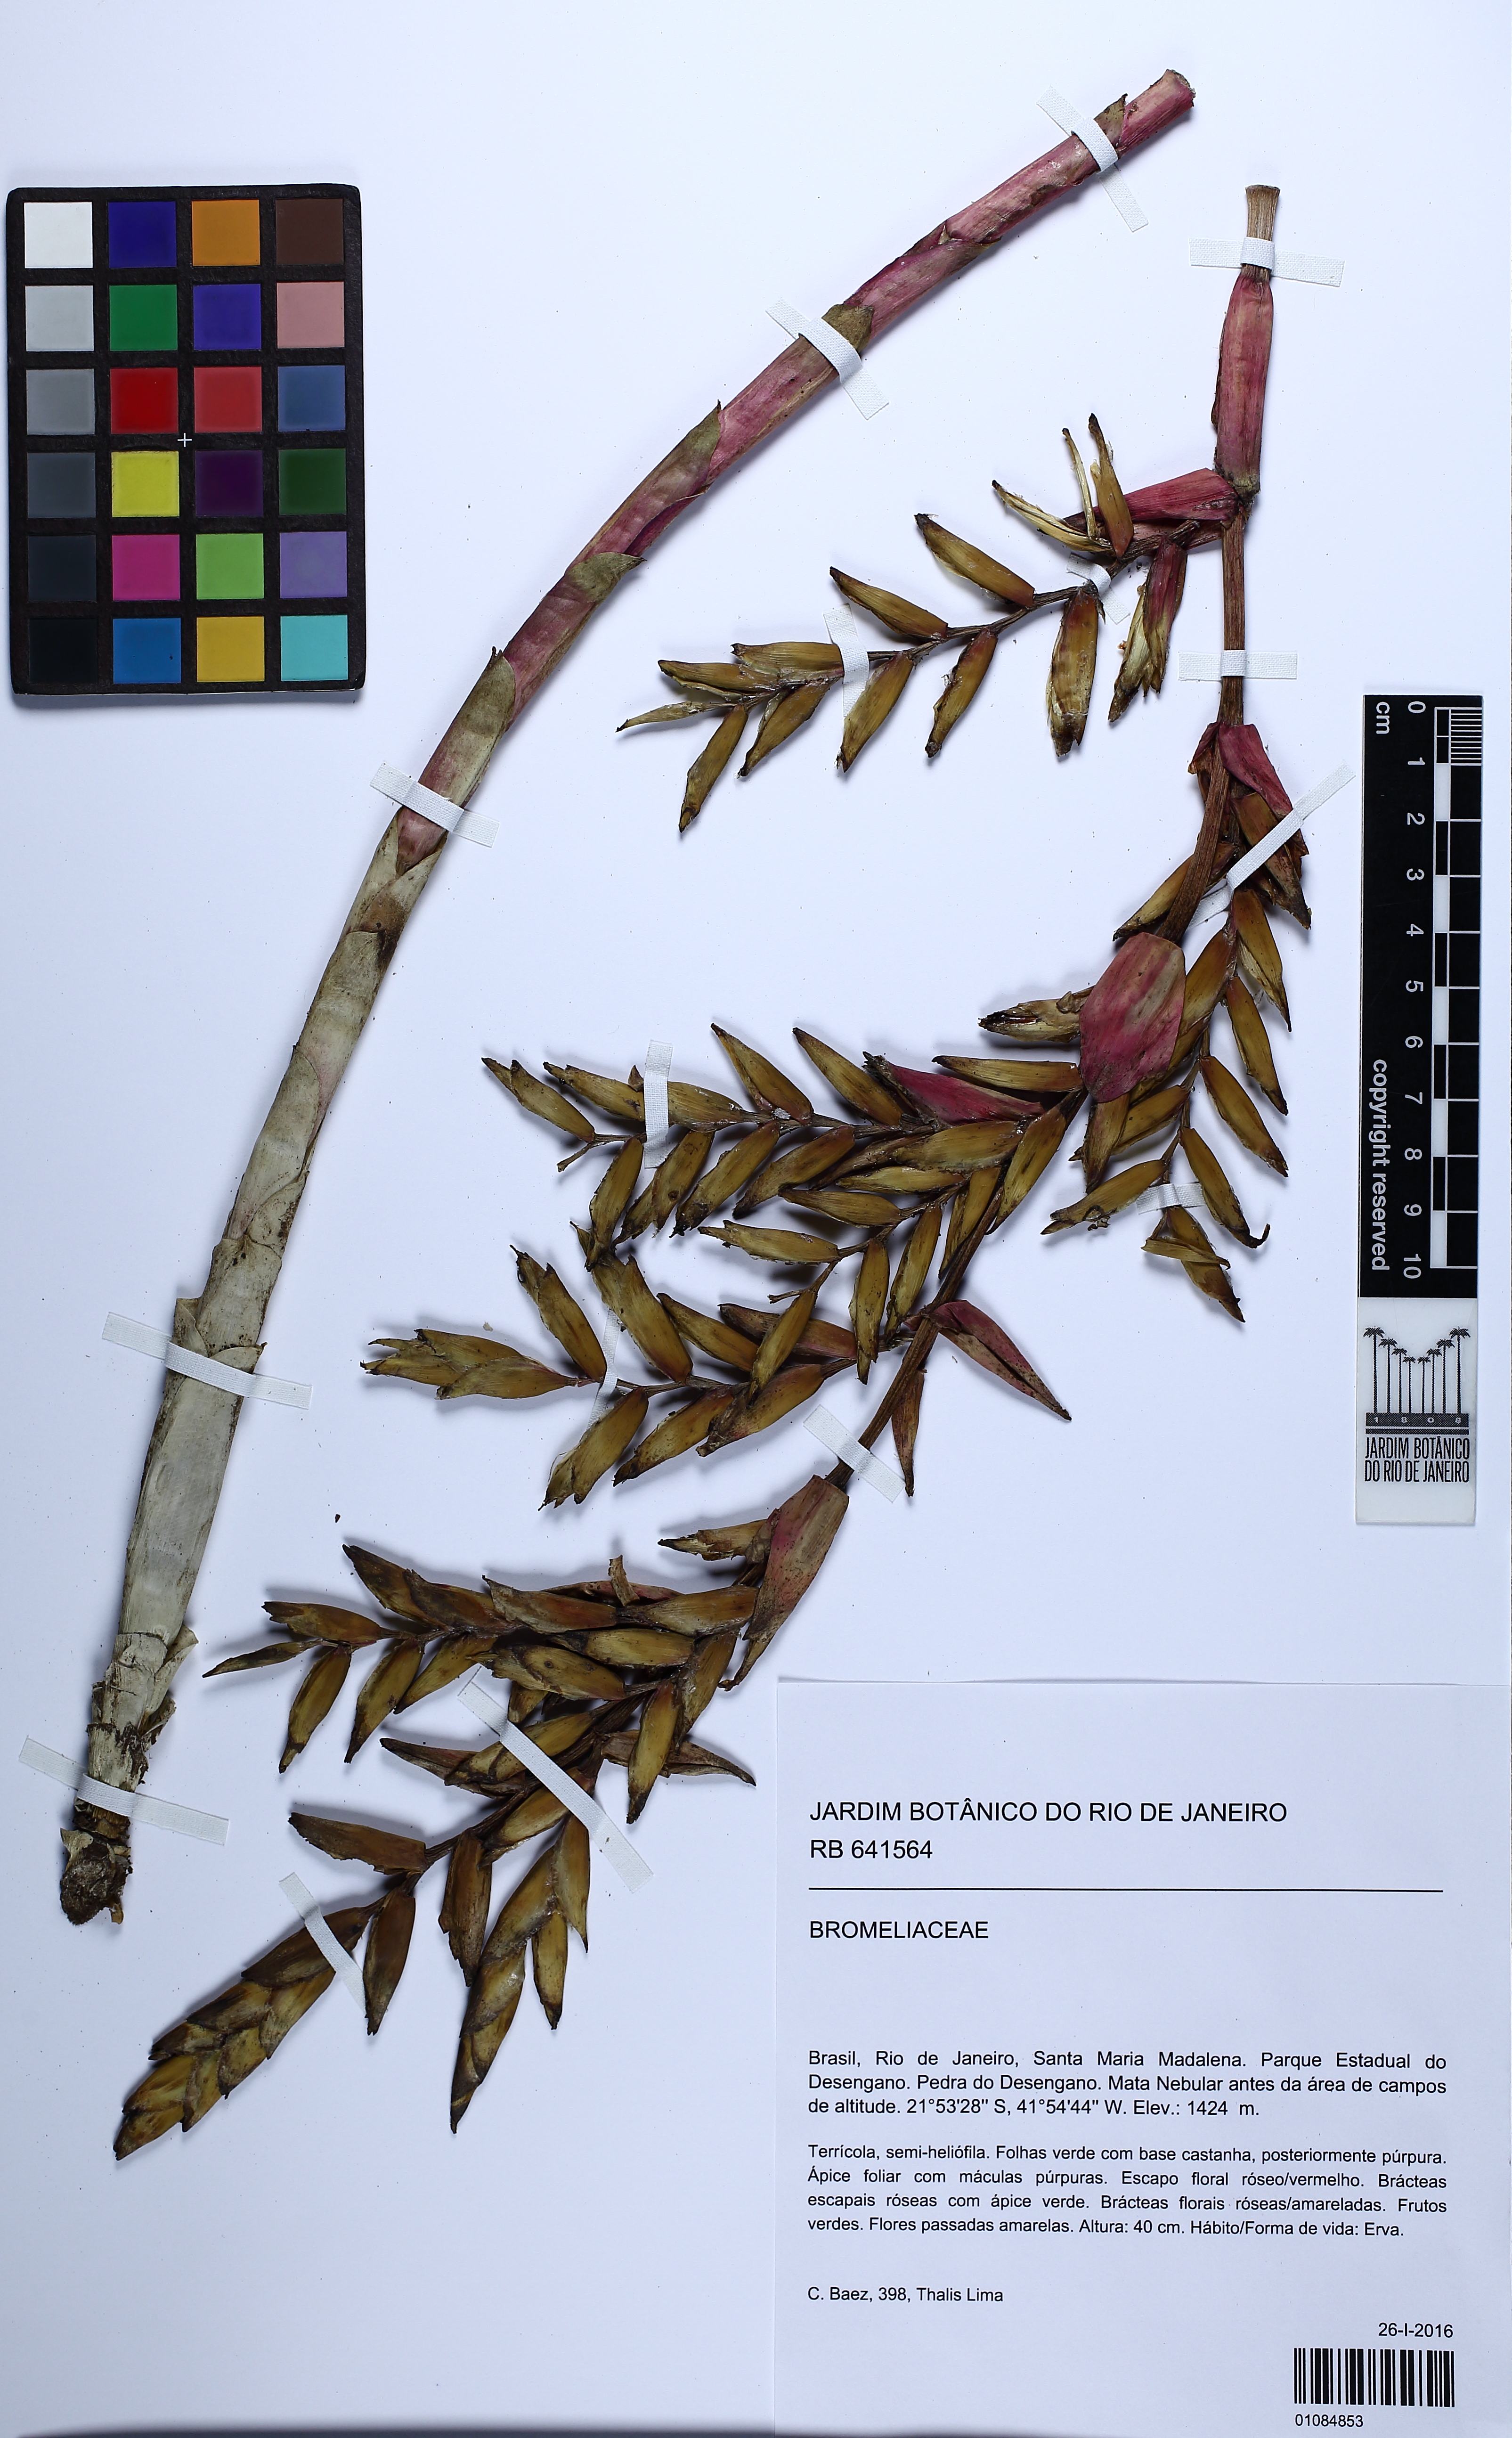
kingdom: Plantae
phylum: Tracheophyta
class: Liliopsida
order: Poales
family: Bromeliaceae
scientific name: Bromeliaceae
